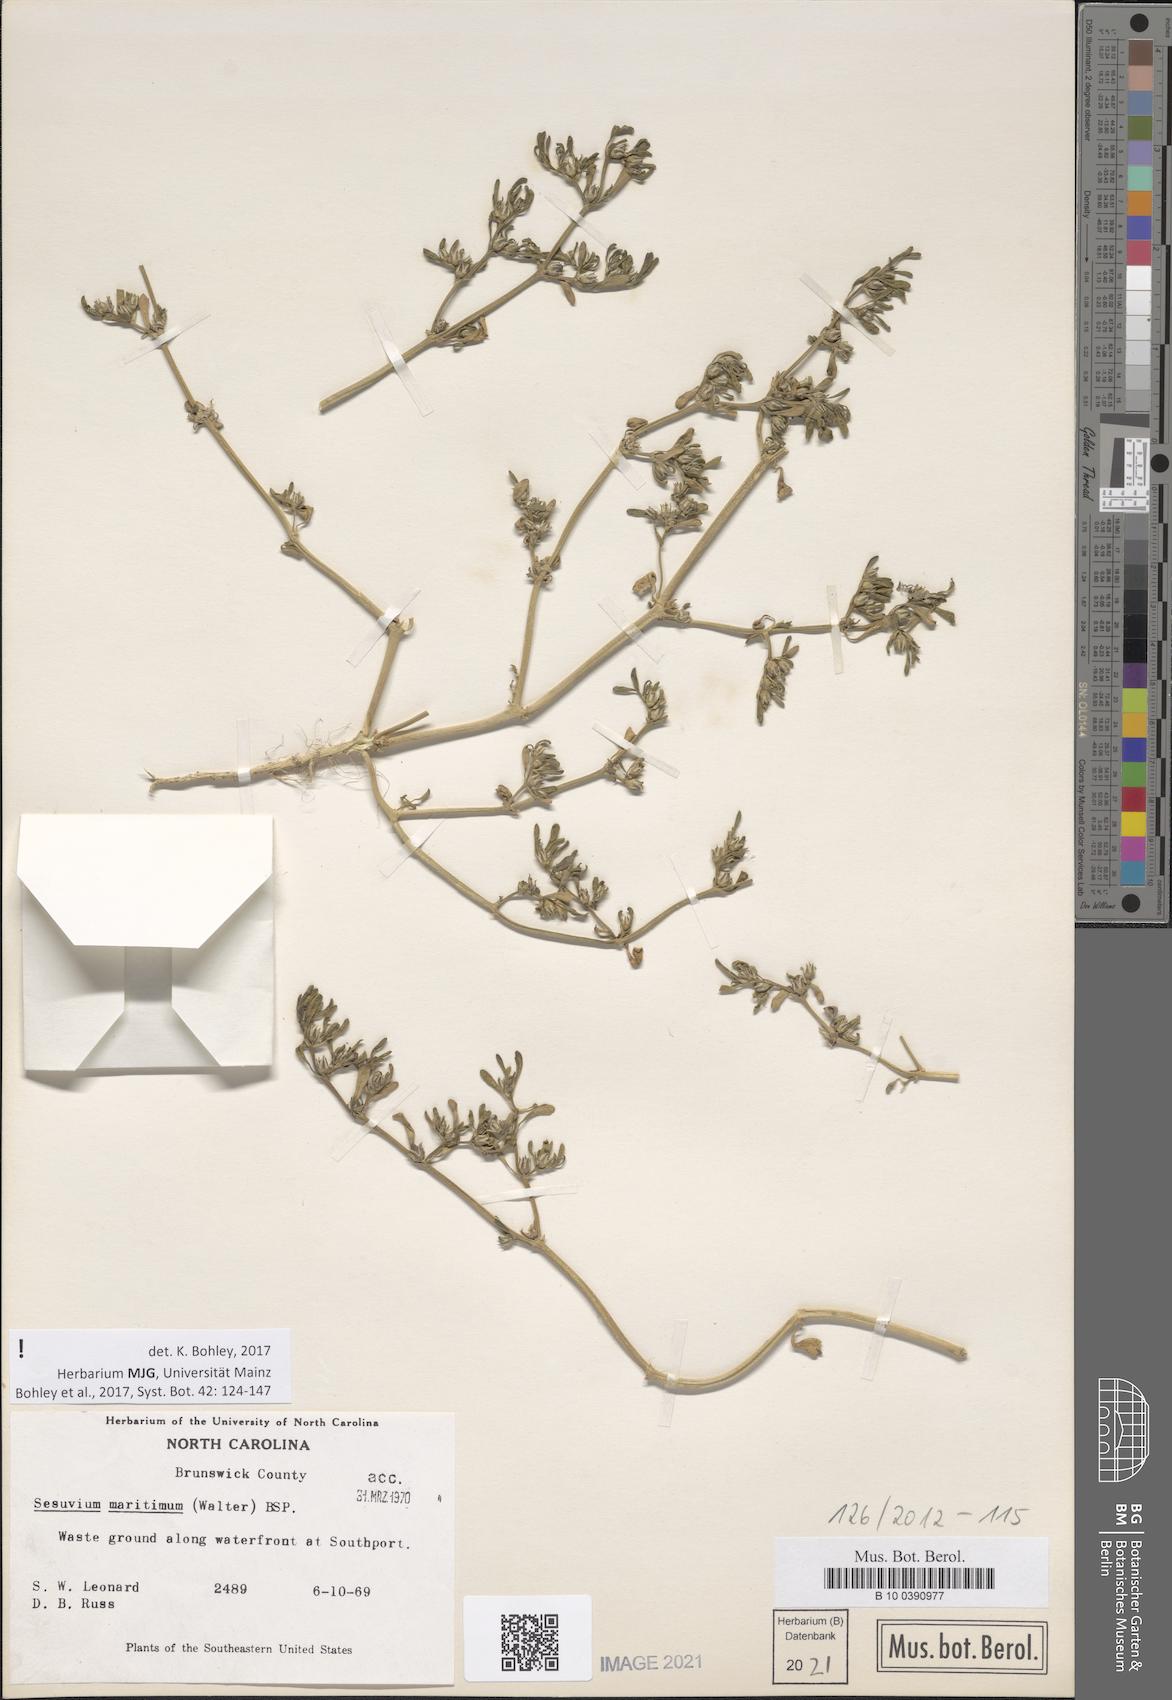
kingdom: Plantae
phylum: Tracheophyta
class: Magnoliopsida
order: Caryophyllales
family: Aizoaceae
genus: Sesuvium
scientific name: Sesuvium maritimum
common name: Slender sea-purslane
